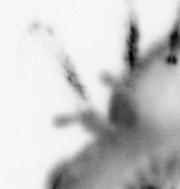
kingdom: Animalia
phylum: Annelida
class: Polychaeta
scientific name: Polychaeta
